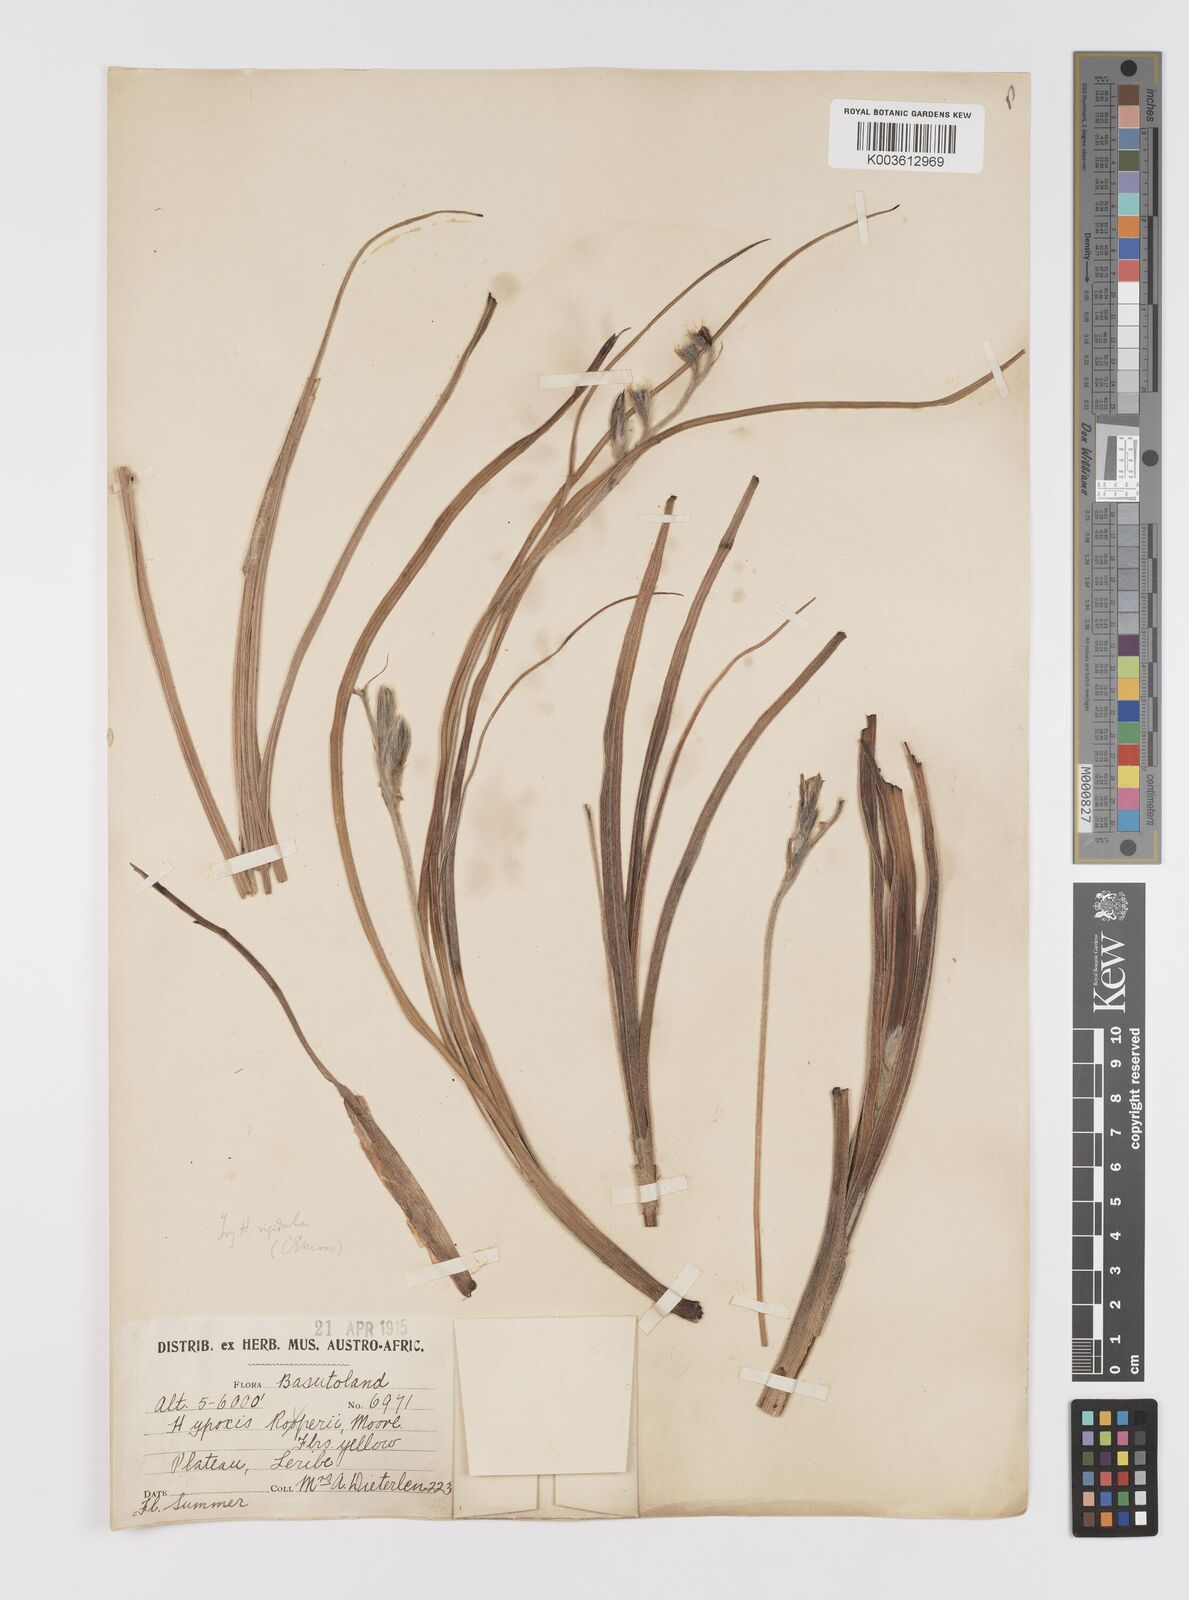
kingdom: Plantae
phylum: Tracheophyta
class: Liliopsida
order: Asparagales
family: Hypoxidaceae
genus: Hypoxis
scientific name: Hypoxis rigidula
